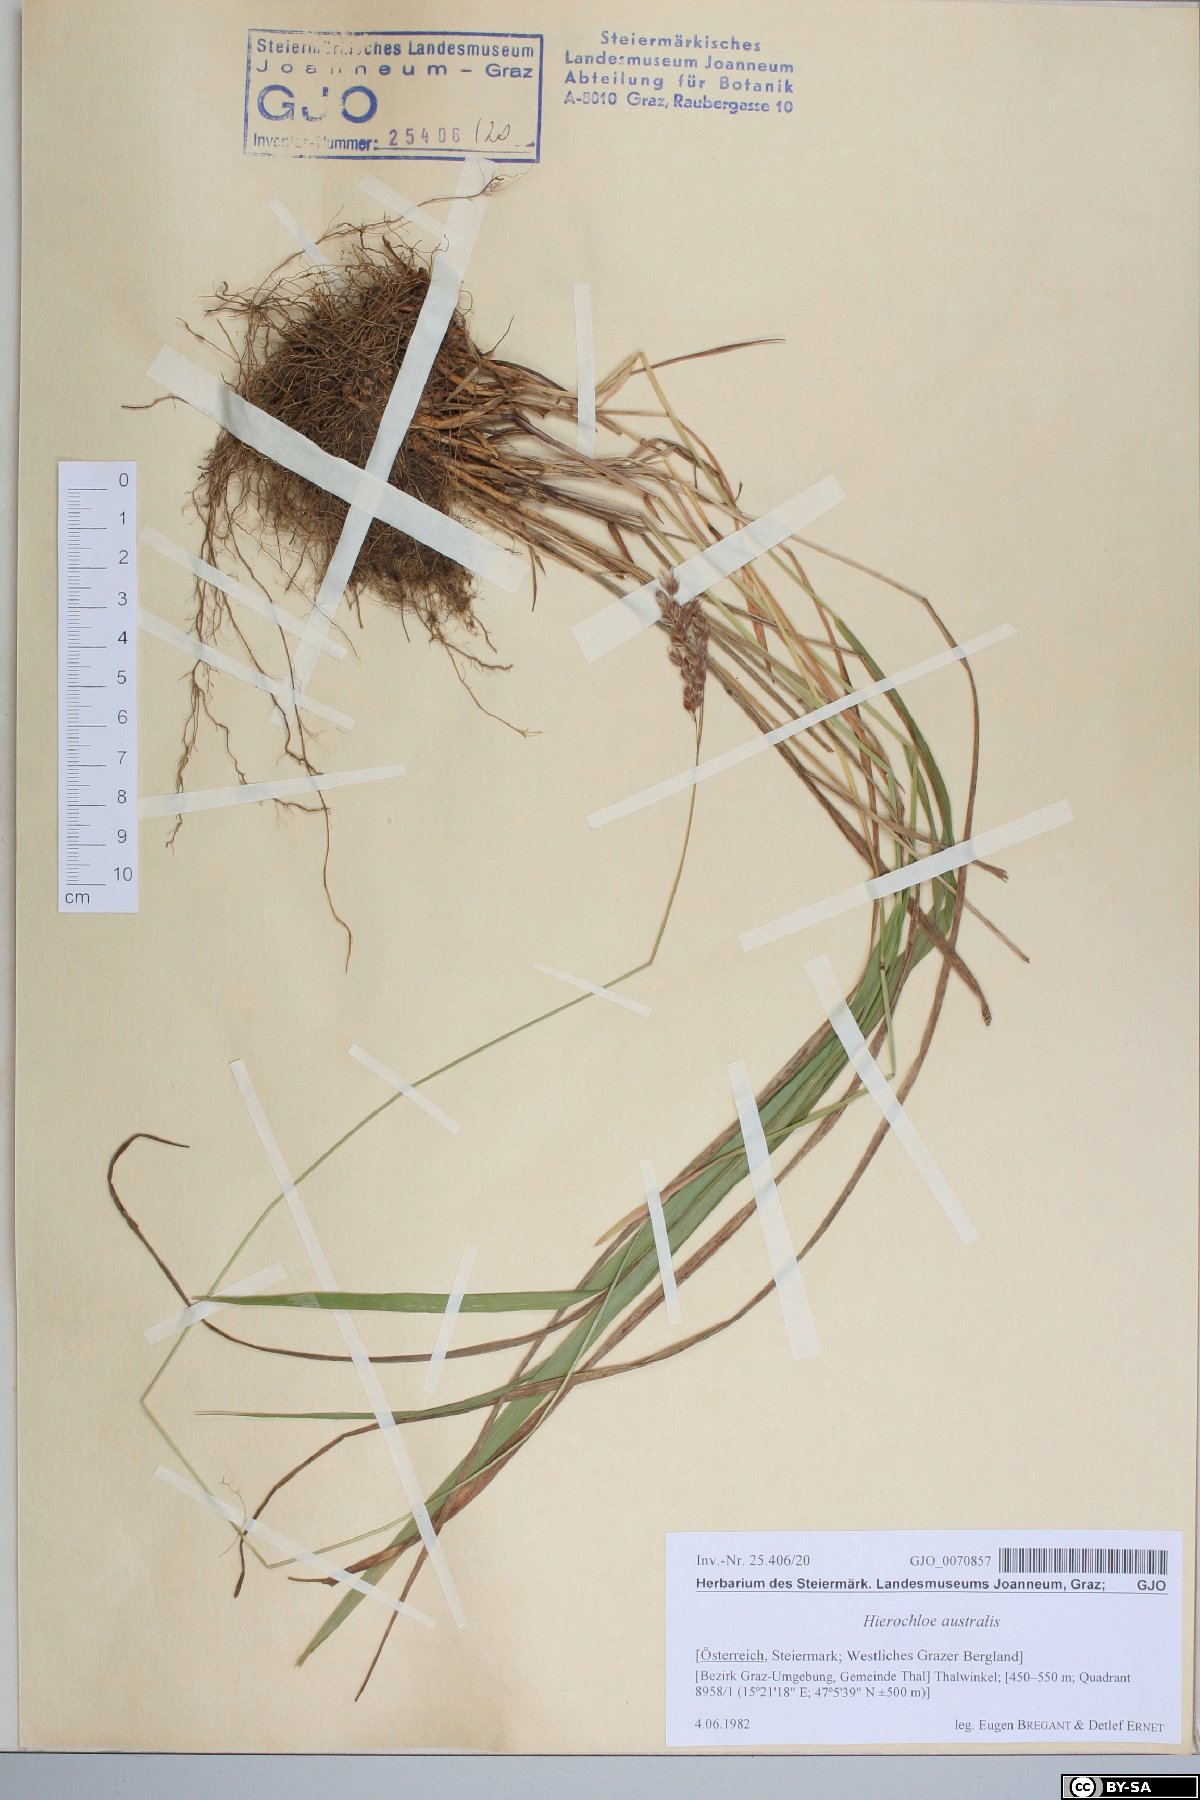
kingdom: Plantae
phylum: Tracheophyta
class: Liliopsida
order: Poales
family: Poaceae
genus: Anthoxanthum
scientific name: Anthoxanthum australe
